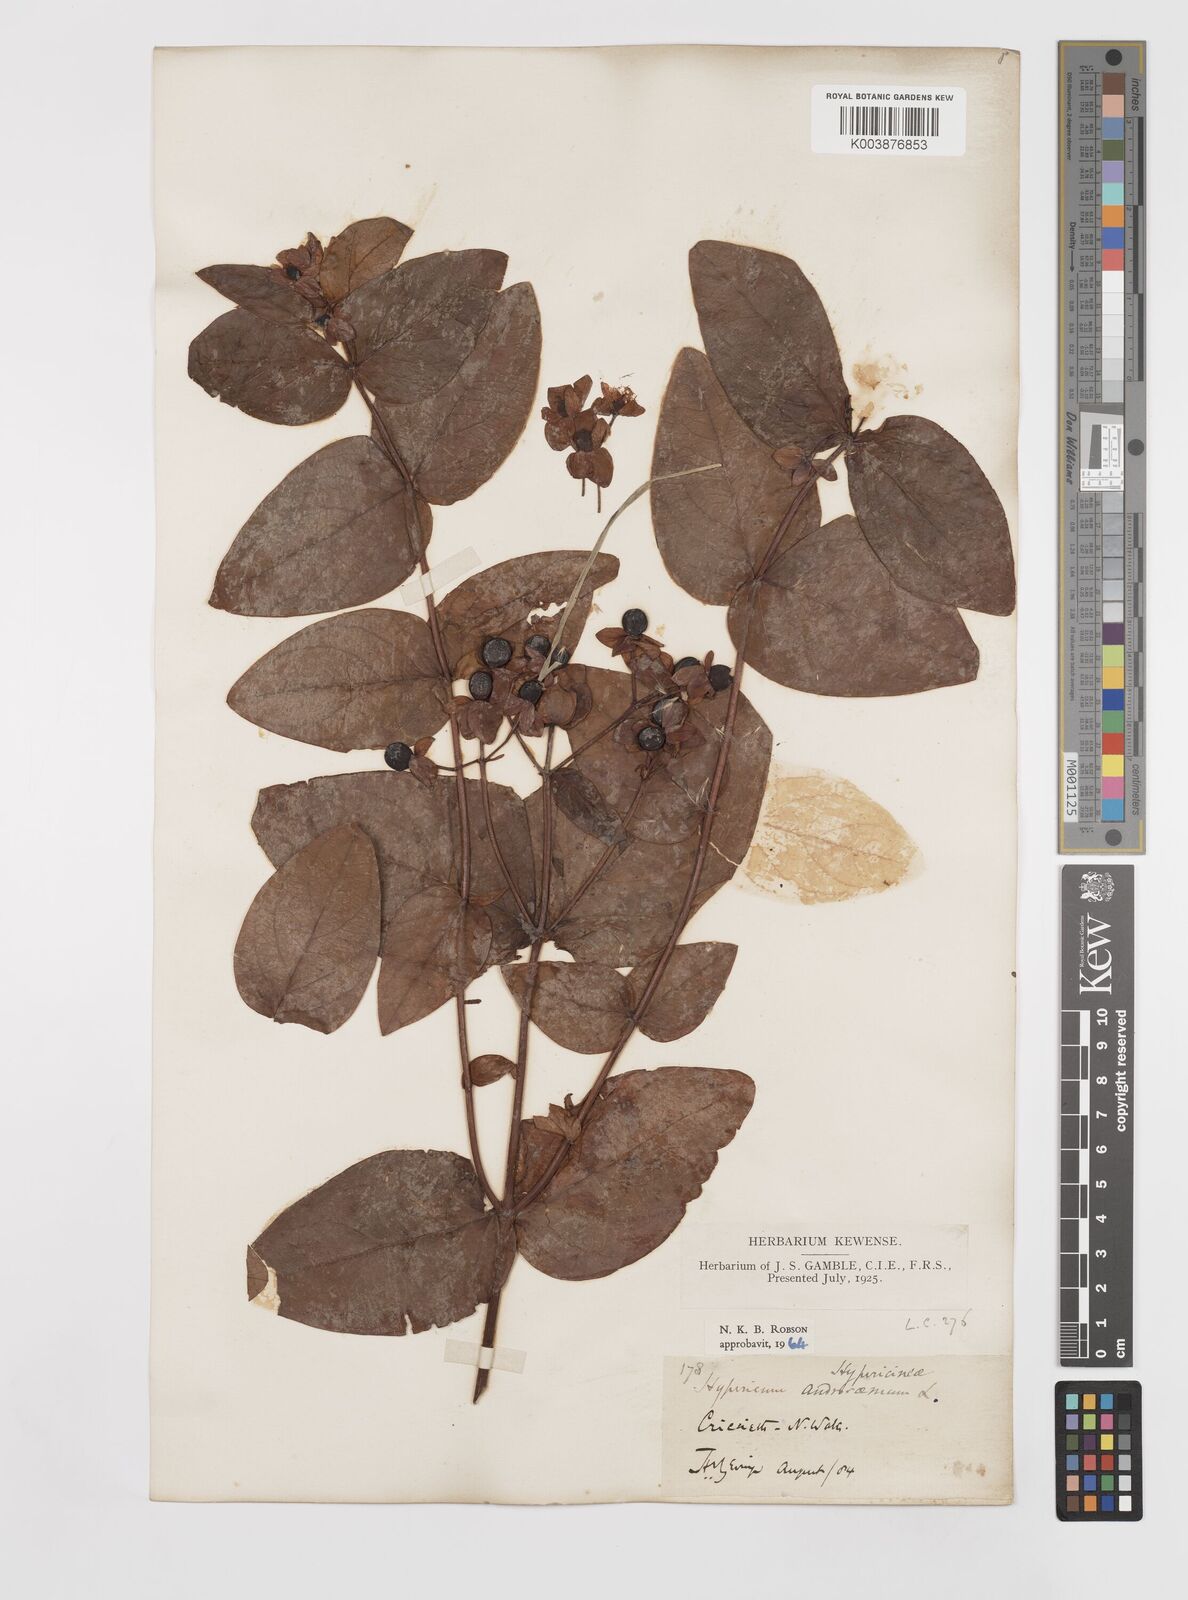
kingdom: Plantae
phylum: Tracheophyta
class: Magnoliopsida
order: Malpighiales
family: Hypericaceae
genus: Hypericum
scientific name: Hypericum androsaemum
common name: Sweet-amber
